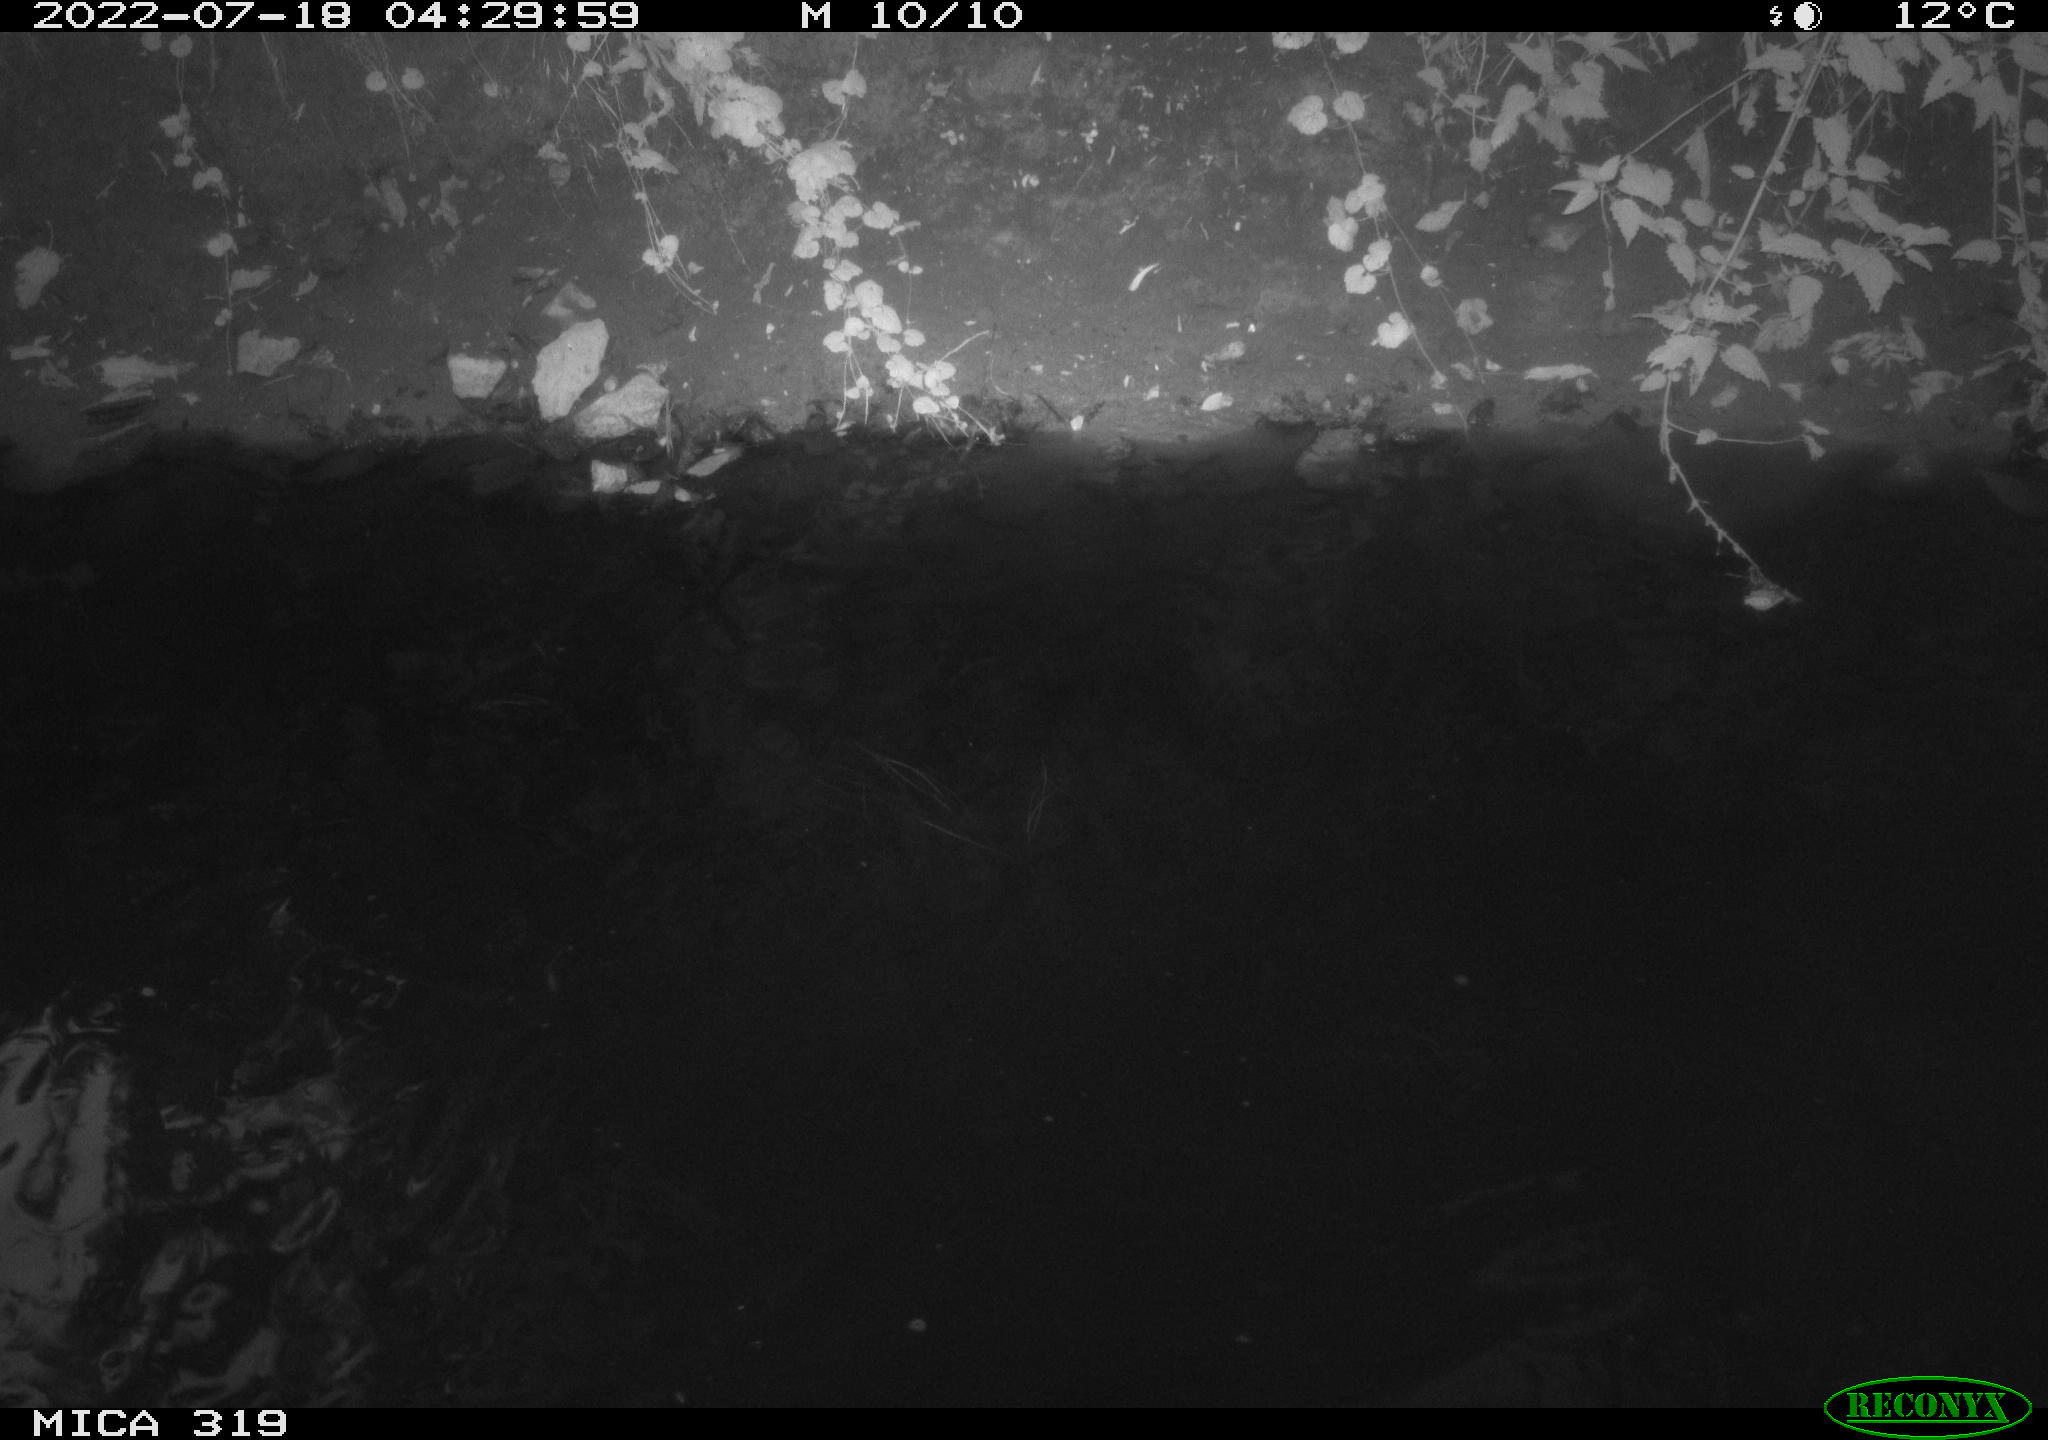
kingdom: Animalia
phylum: Chordata
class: Aves
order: Gruiformes
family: Rallidae
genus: Gallinula
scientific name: Gallinula chloropus
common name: Common moorhen
